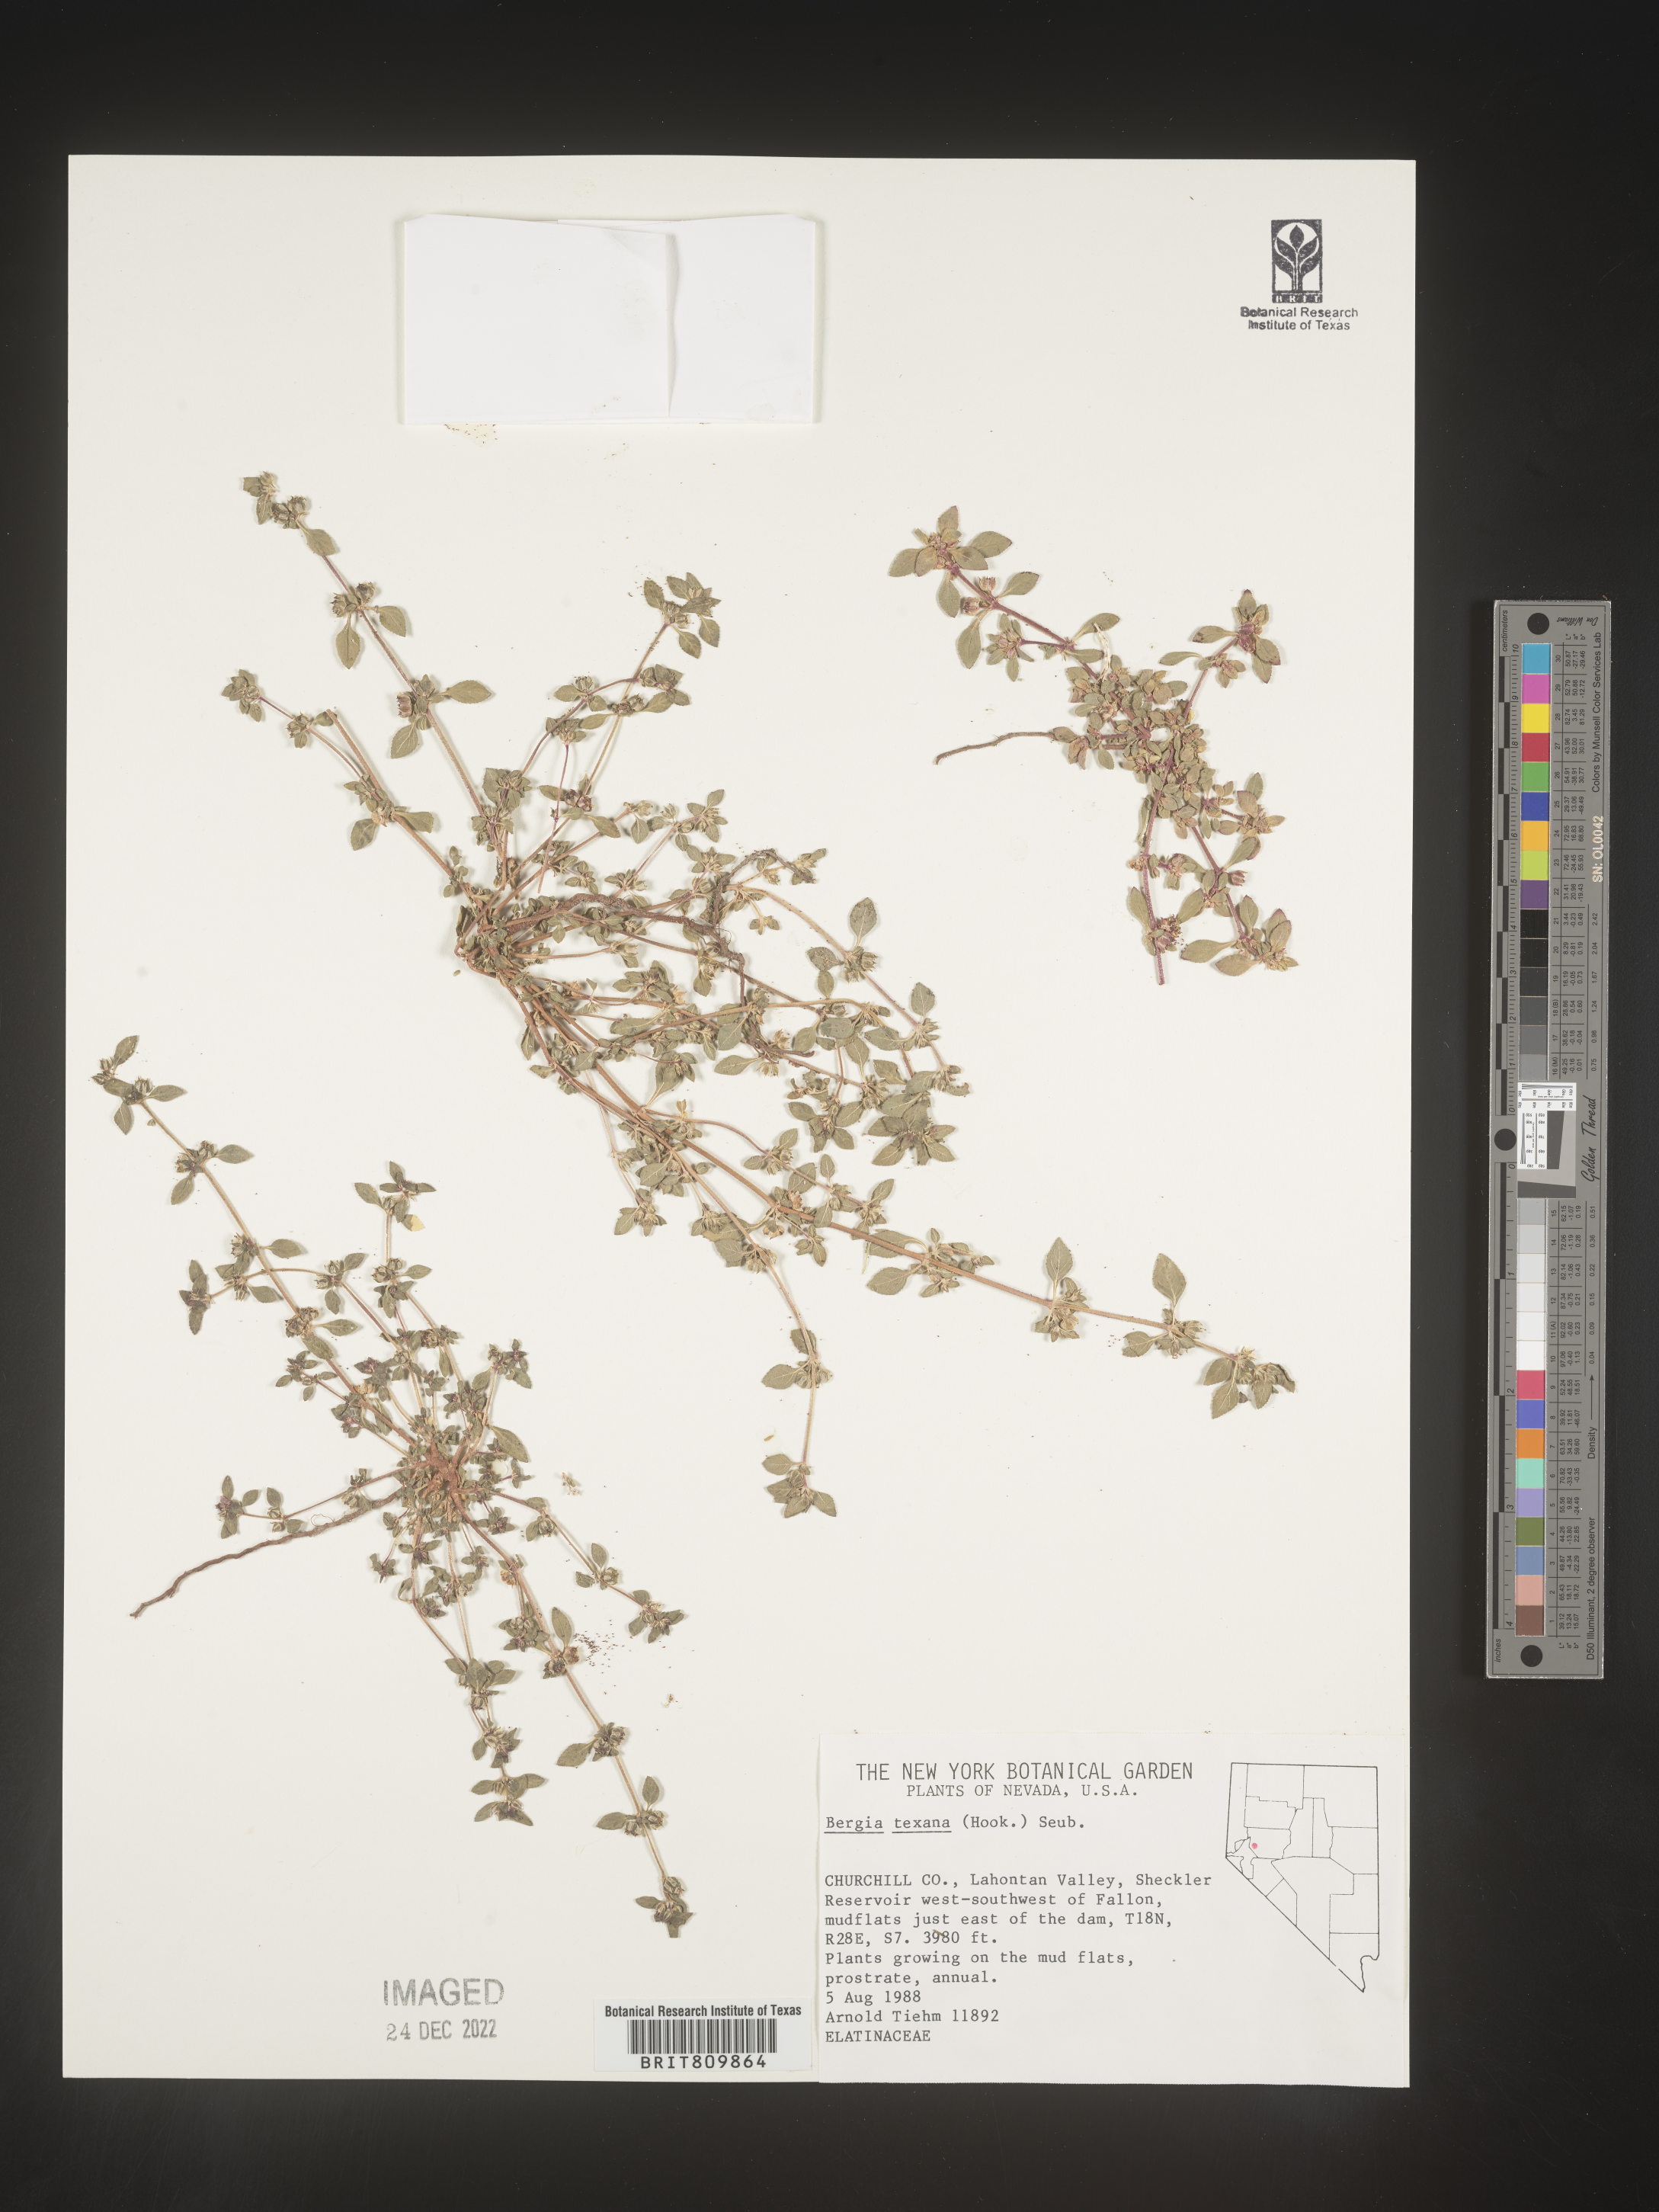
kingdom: Plantae
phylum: Tracheophyta
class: Magnoliopsida
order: Malpighiales
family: Elatinaceae
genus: Bergia
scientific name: Bergia
